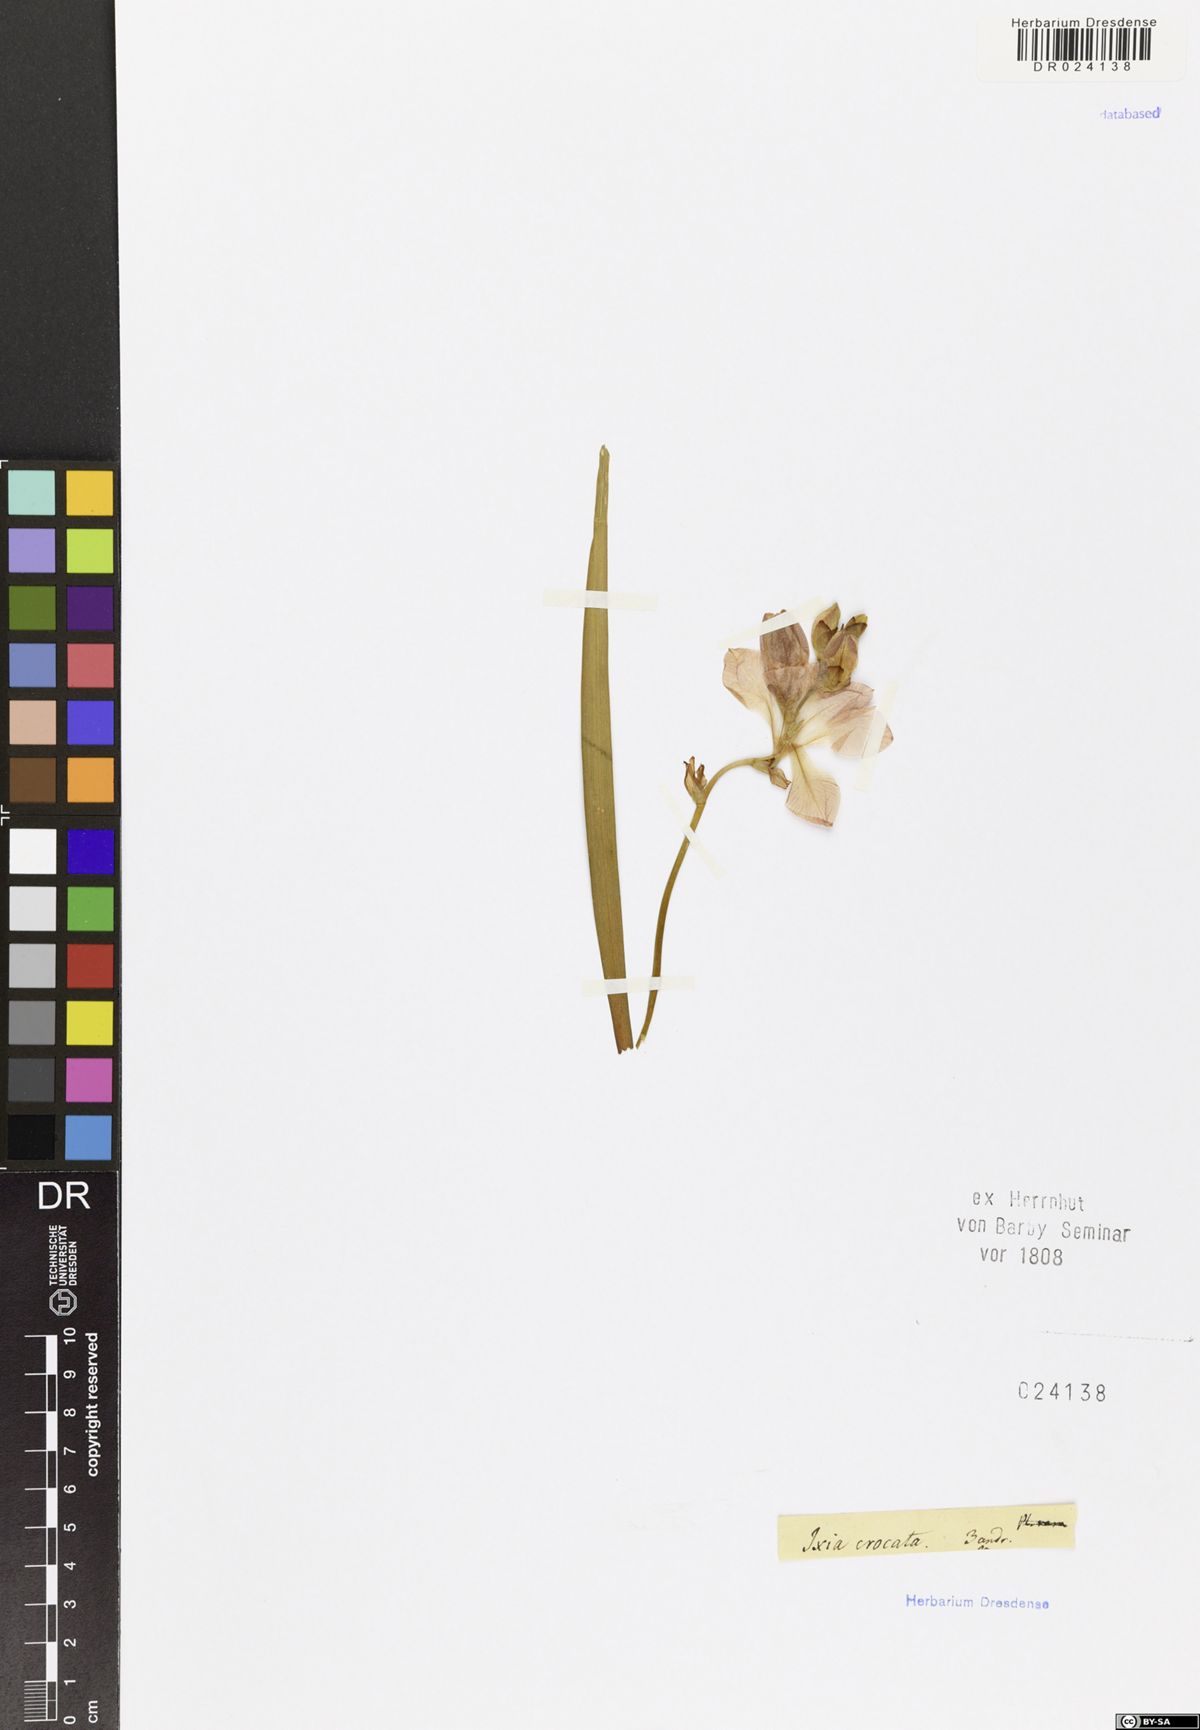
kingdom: Plantae
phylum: Tracheophyta
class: Liliopsida
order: Asparagales
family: Iridaceae
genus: Tritonia
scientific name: Tritonia crocata
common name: Flame-freesia
